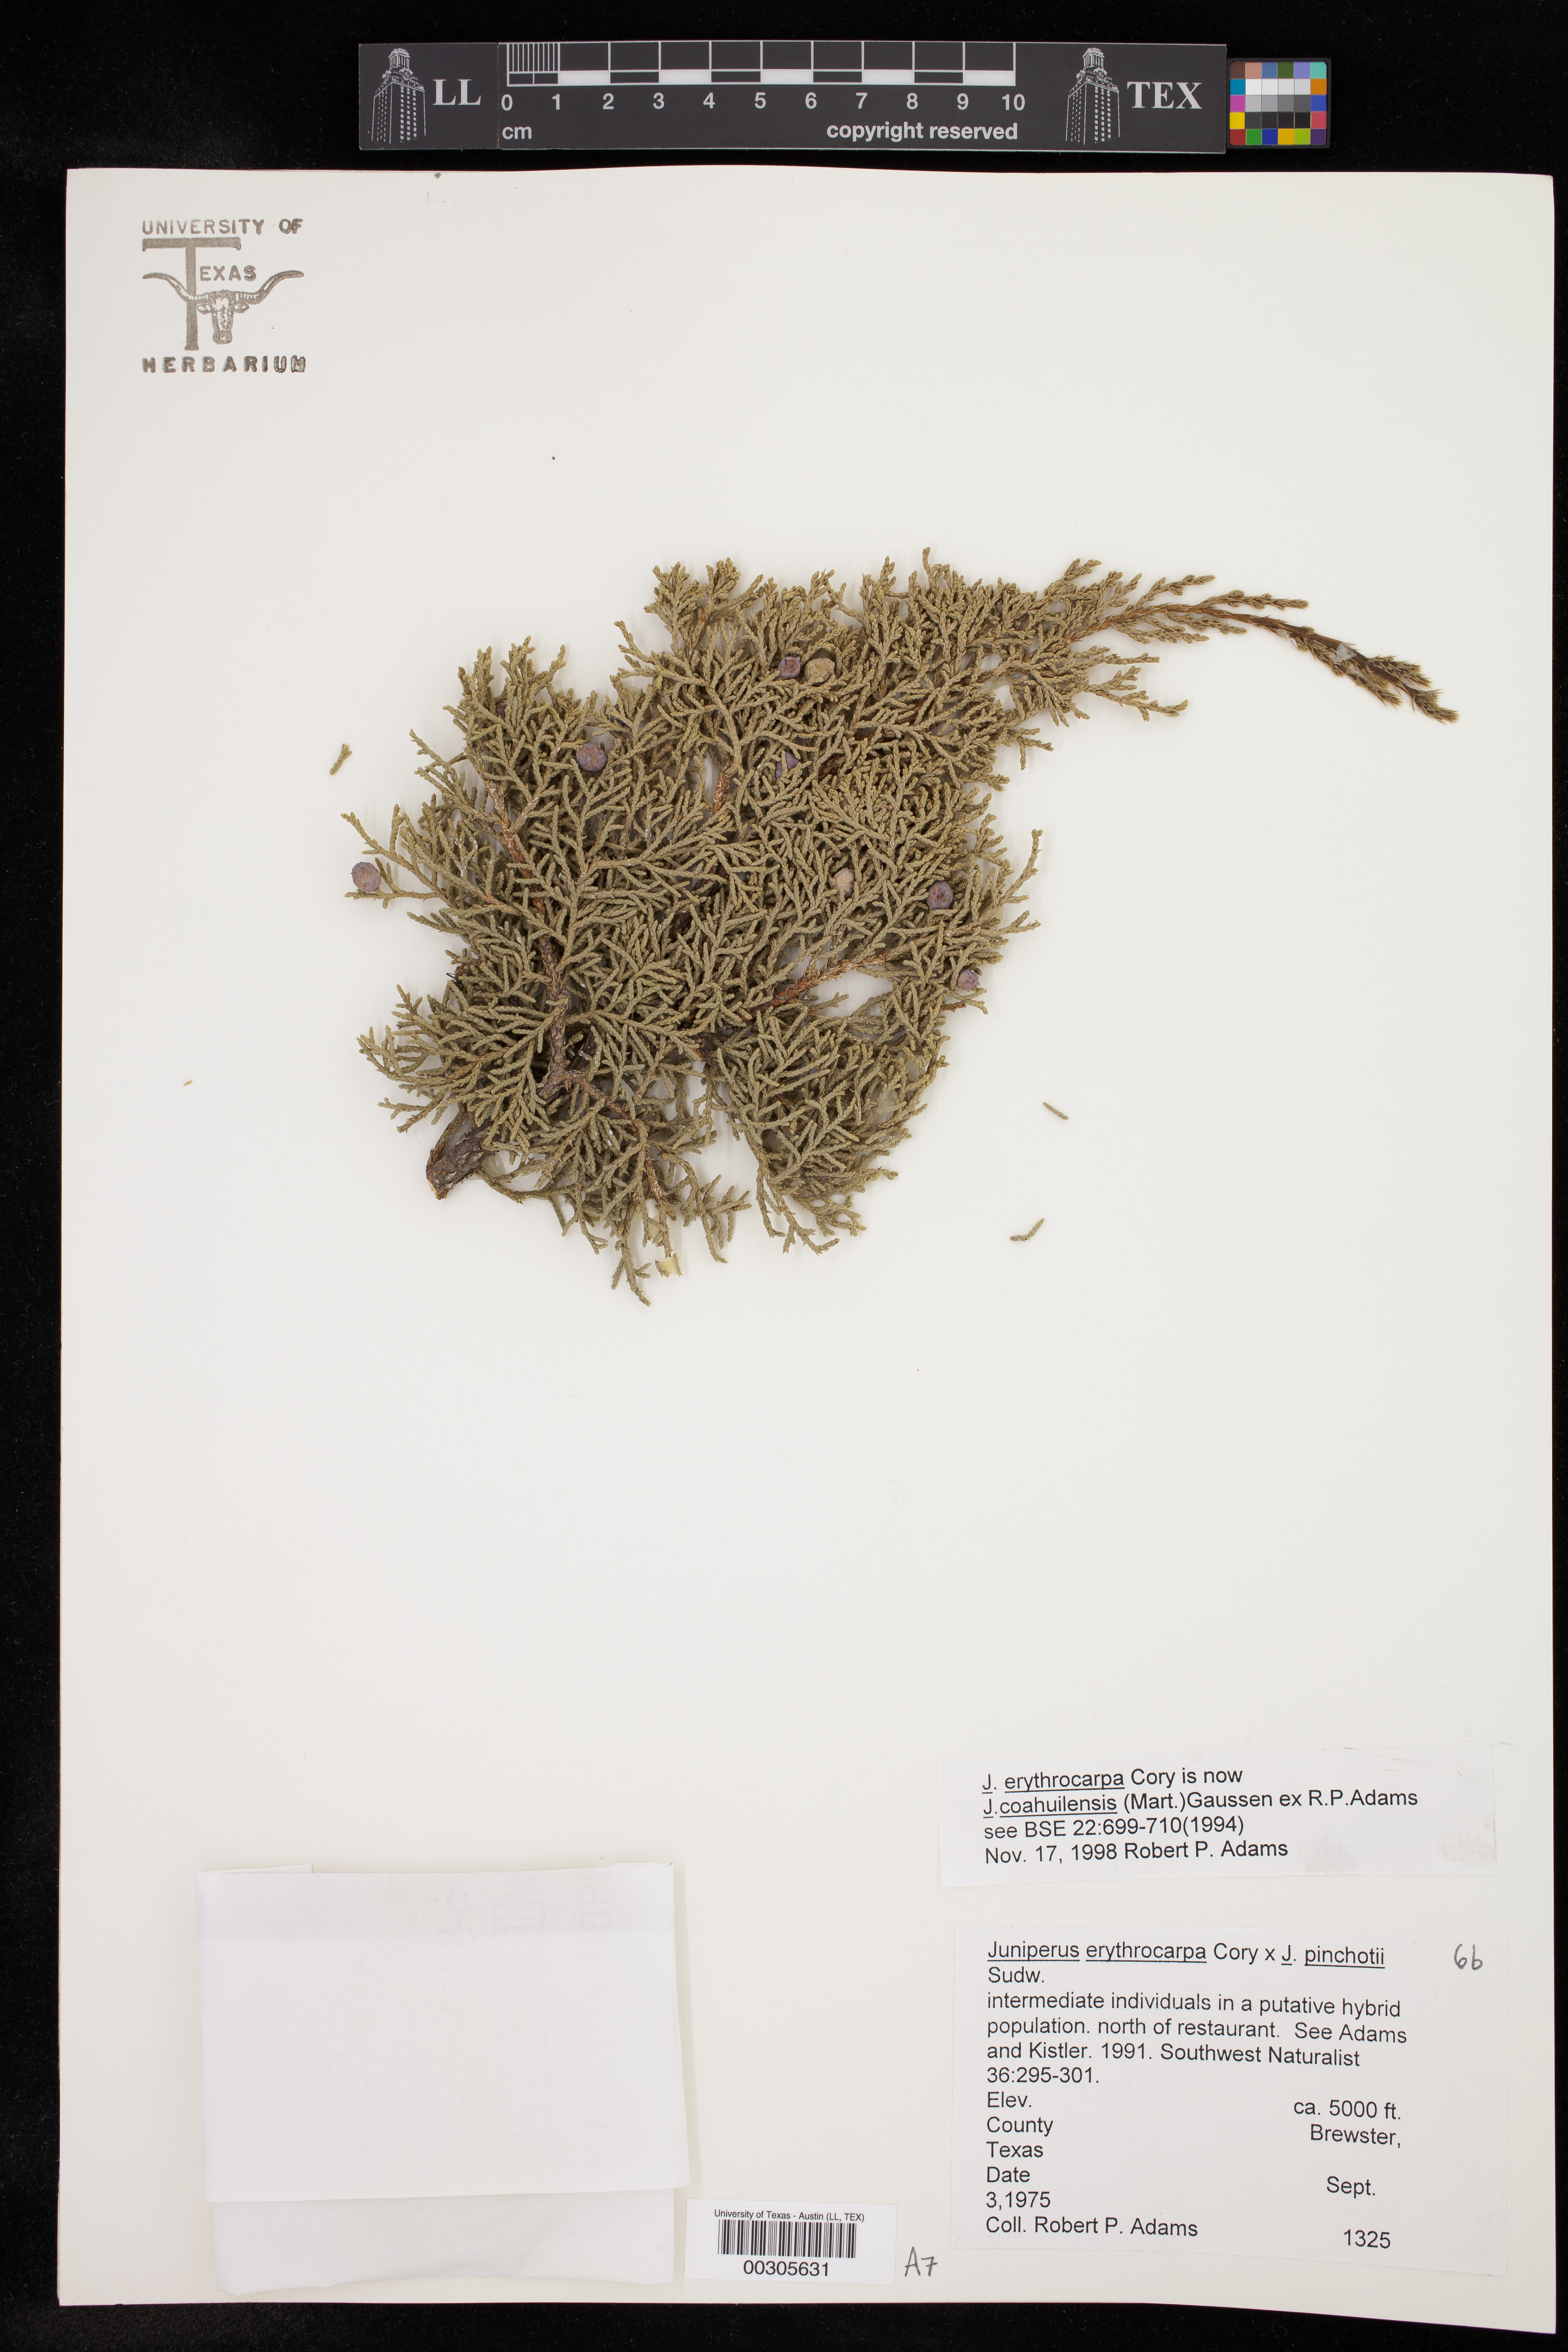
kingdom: Plantae
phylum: Tracheophyta
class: Pinopsida
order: Pinales
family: Cupressaceae
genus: Juniperus
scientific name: Juniperus coahuilensis
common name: Roseberry
